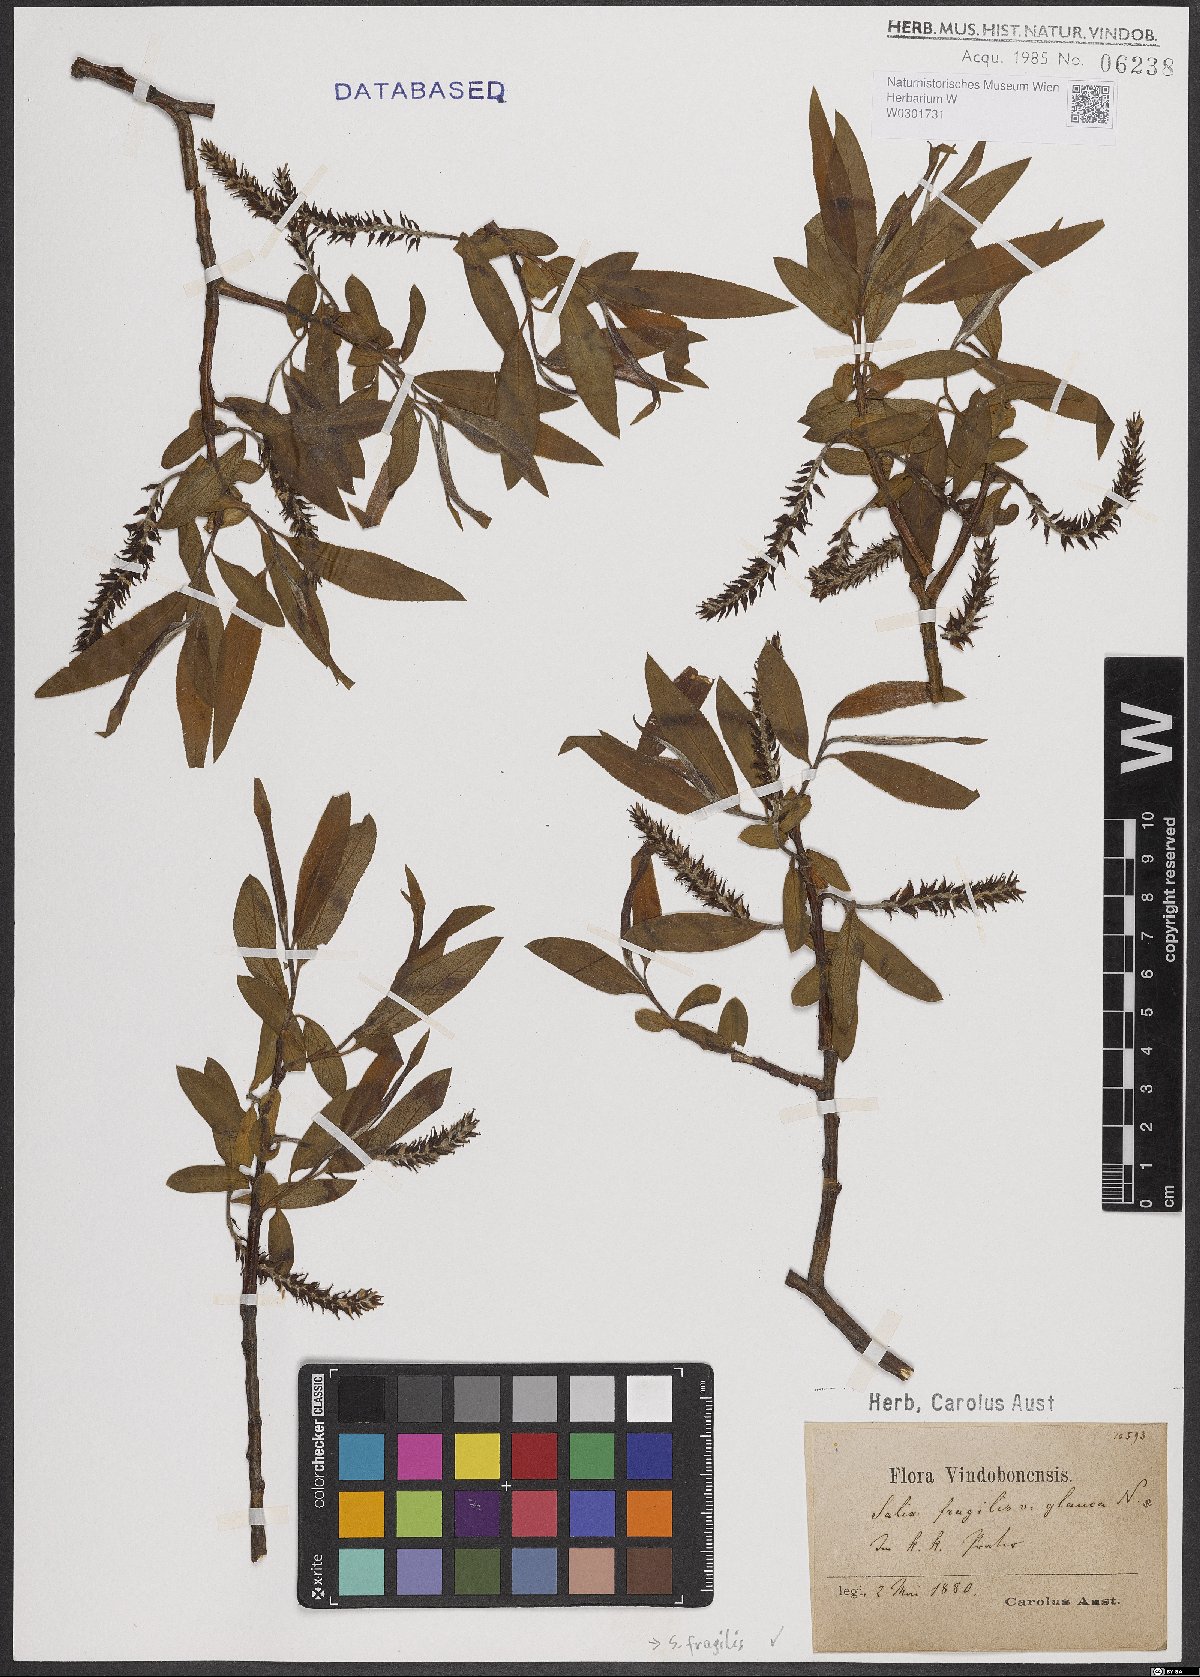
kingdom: Plantae
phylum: Tracheophyta
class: Magnoliopsida
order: Malpighiales
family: Salicaceae
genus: Salix
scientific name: Salix fragilis
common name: Crack willow
